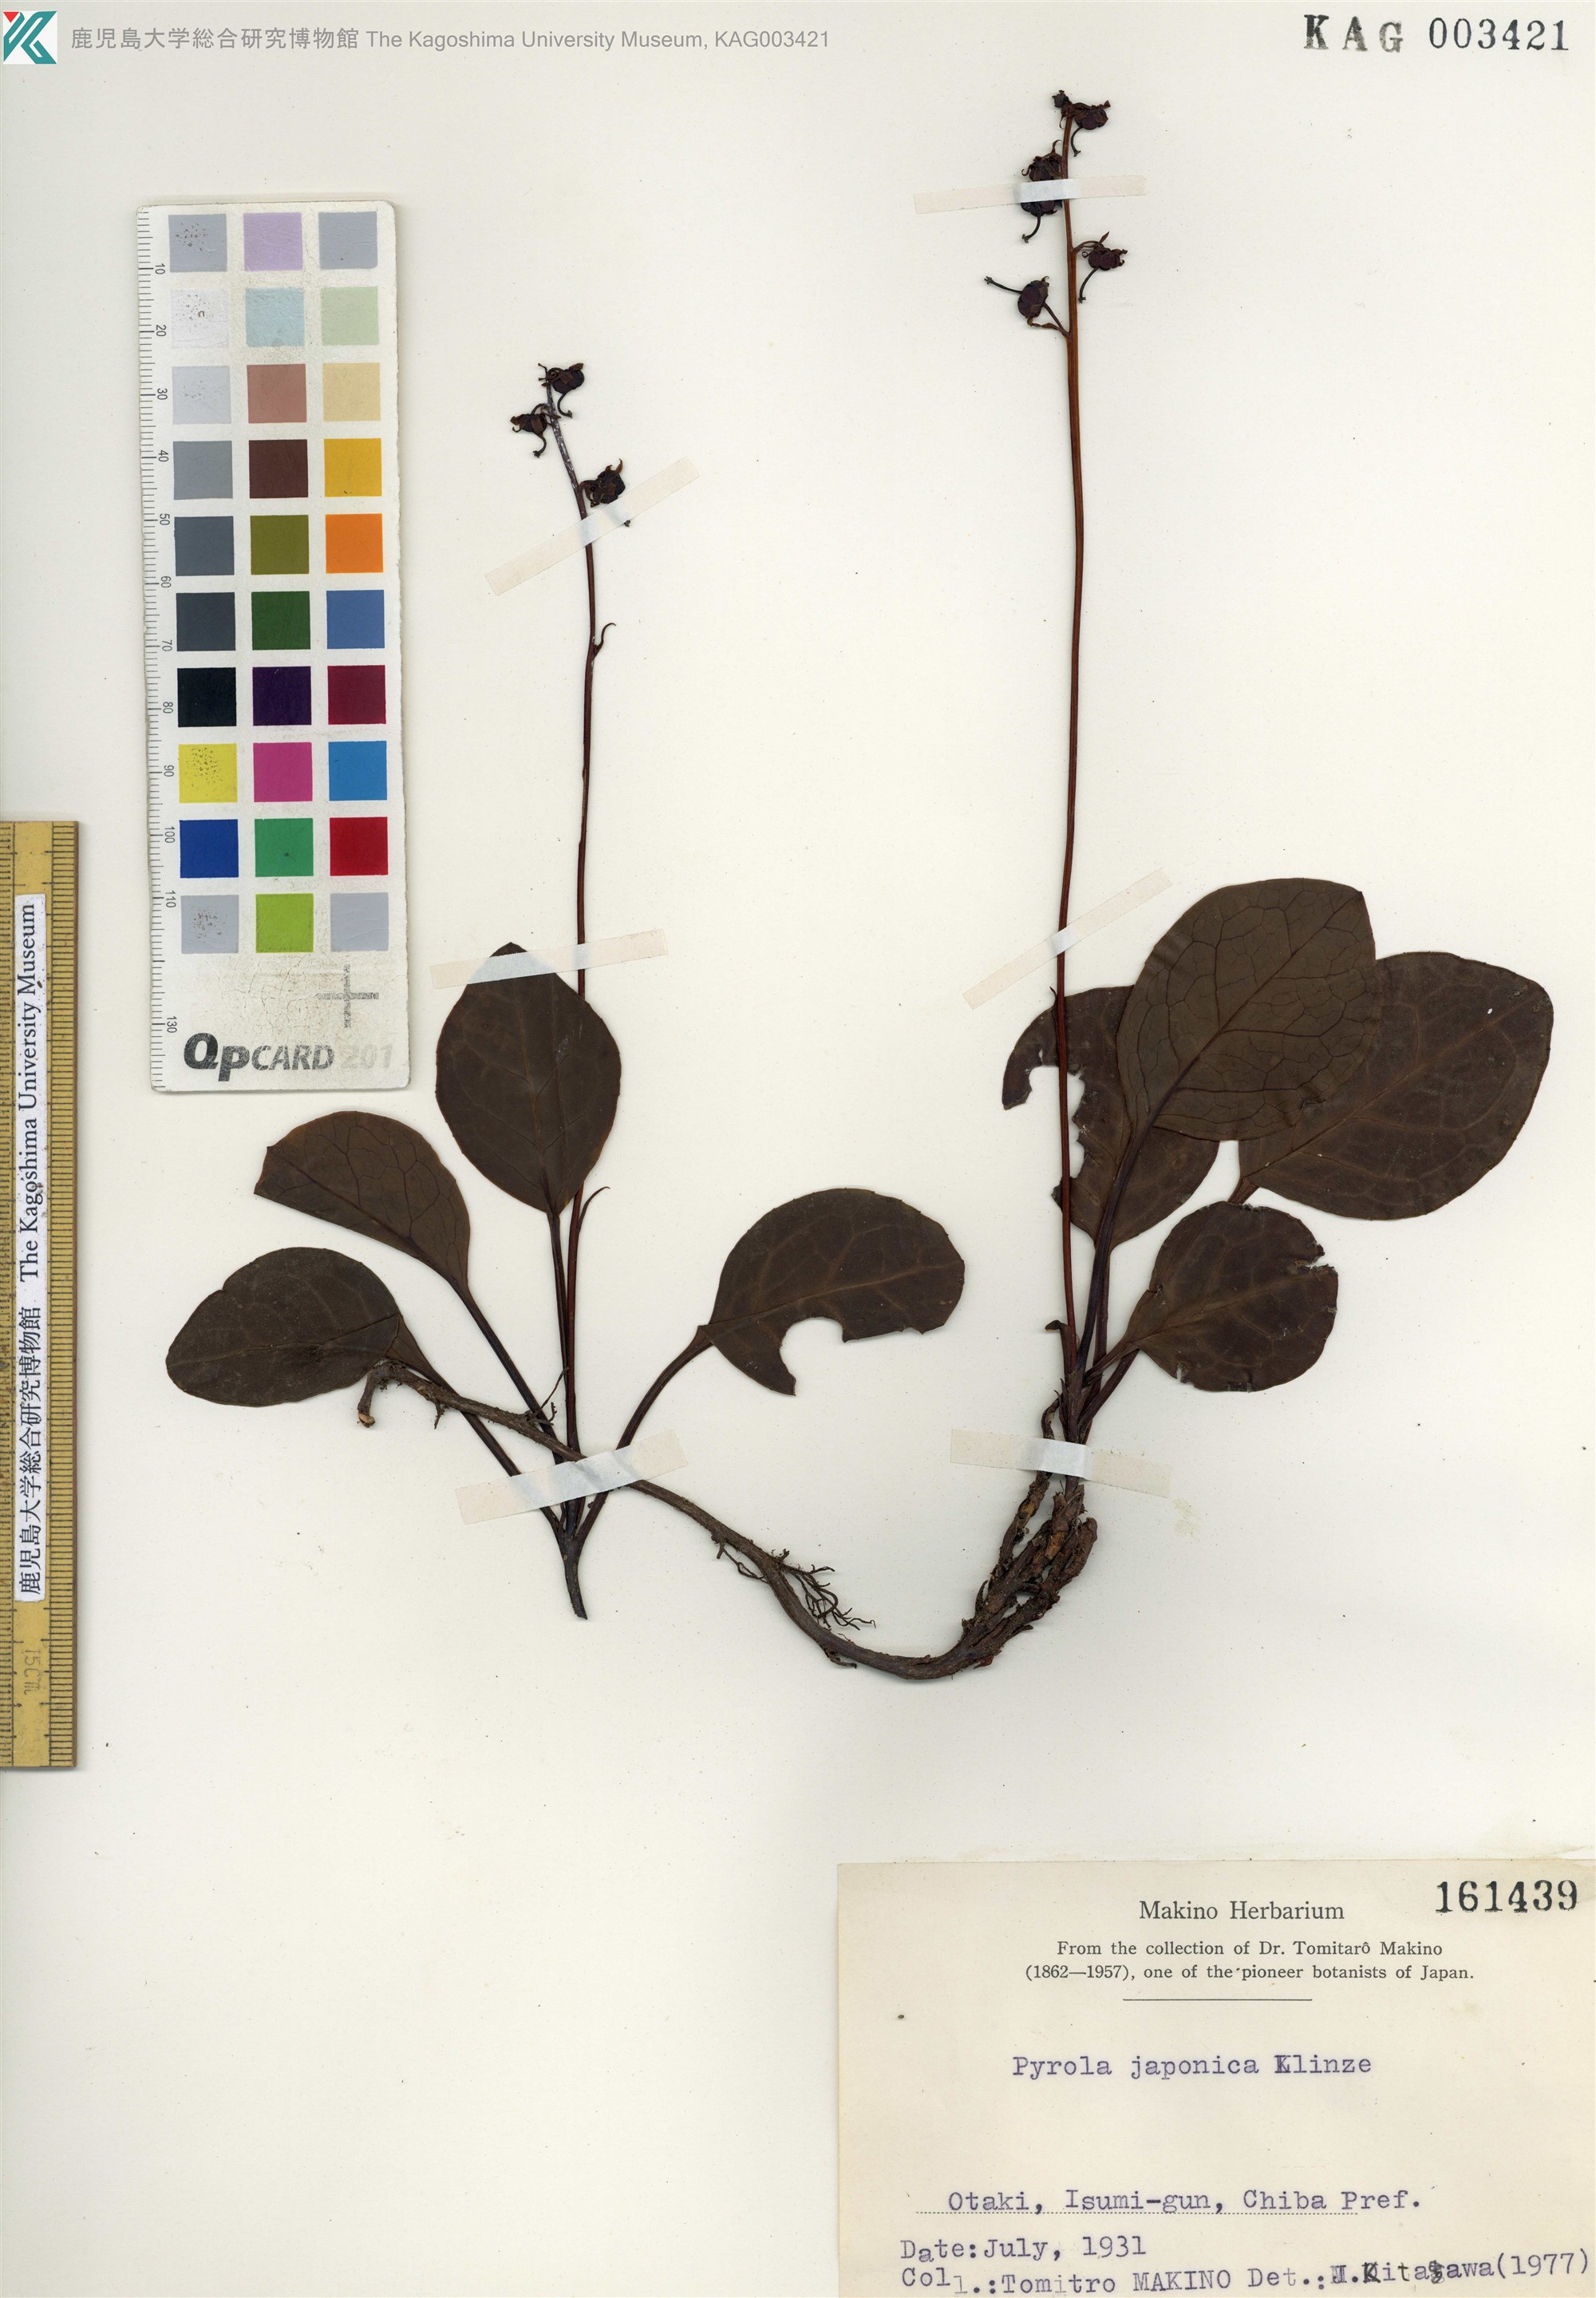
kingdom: Plantae
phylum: Tracheophyta
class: Magnoliopsida
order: Ericales
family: Ericaceae
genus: Pyrola
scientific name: Pyrola japonica
